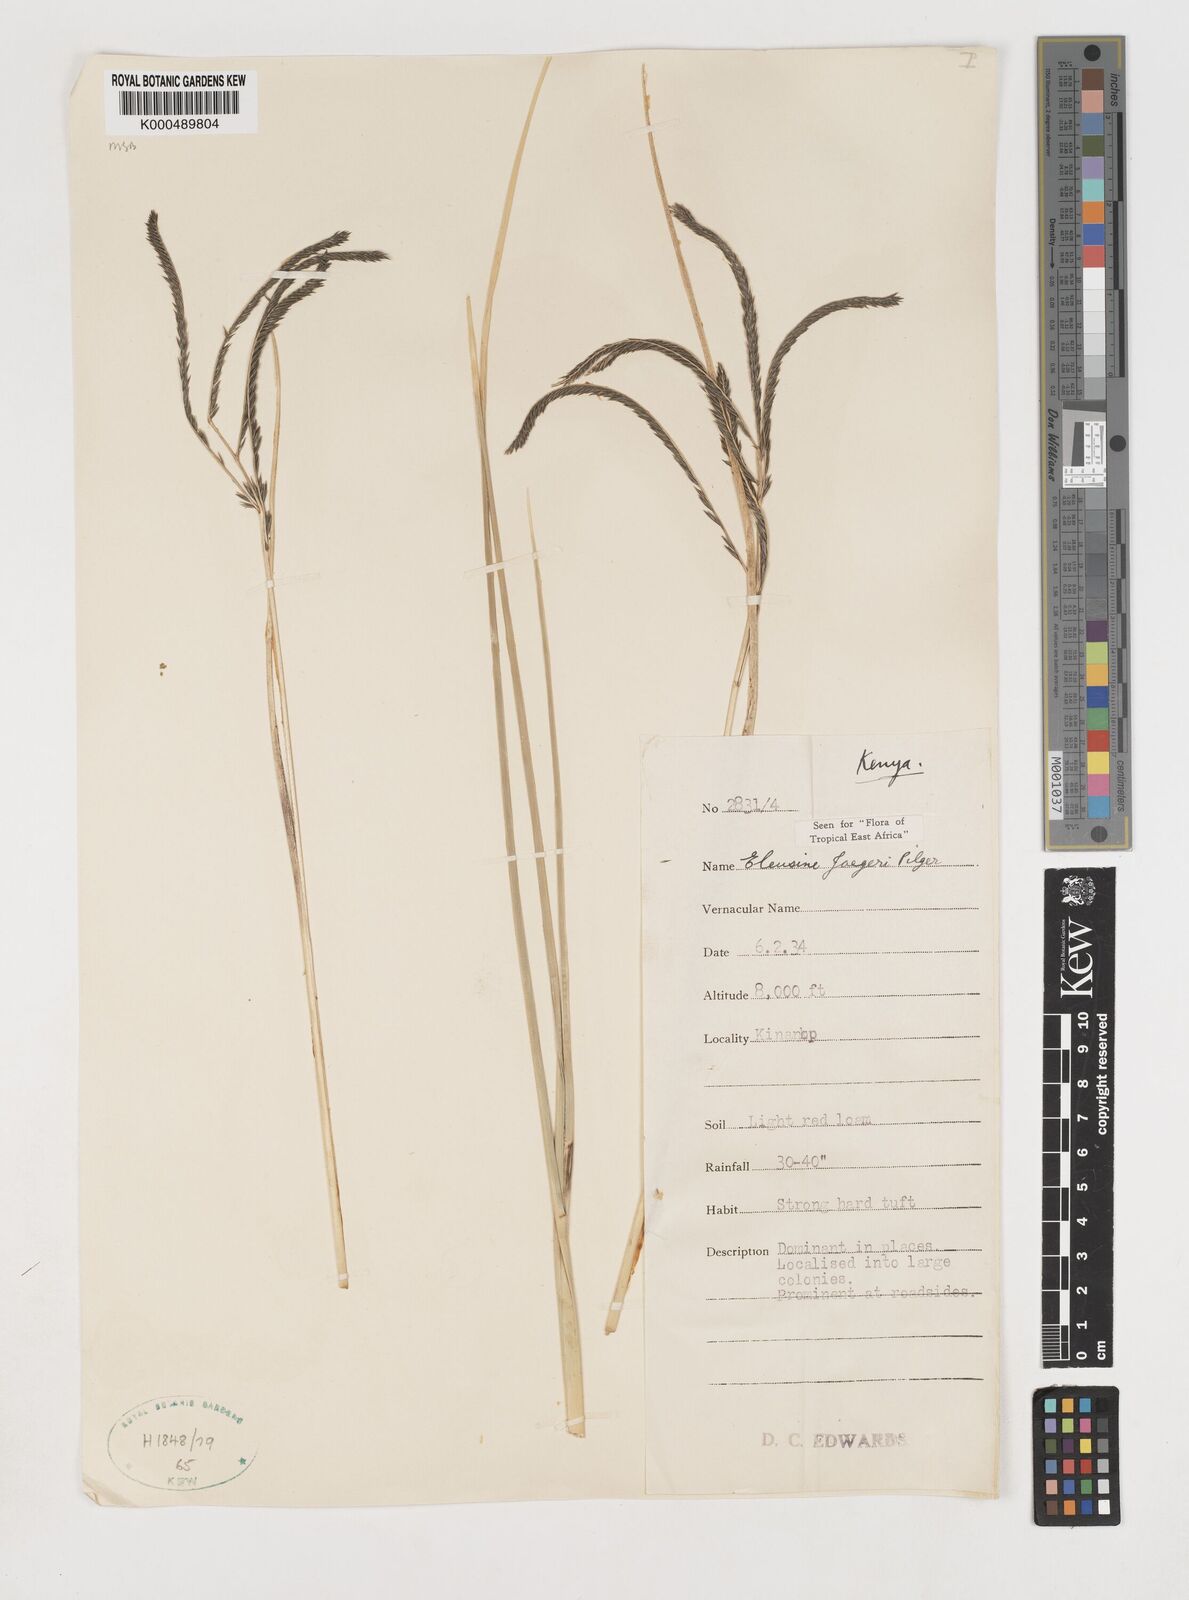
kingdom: Plantae
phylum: Tracheophyta
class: Liliopsida
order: Poales
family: Poaceae
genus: Eleusine
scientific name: Eleusine jaegeri
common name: Manyatta grass
